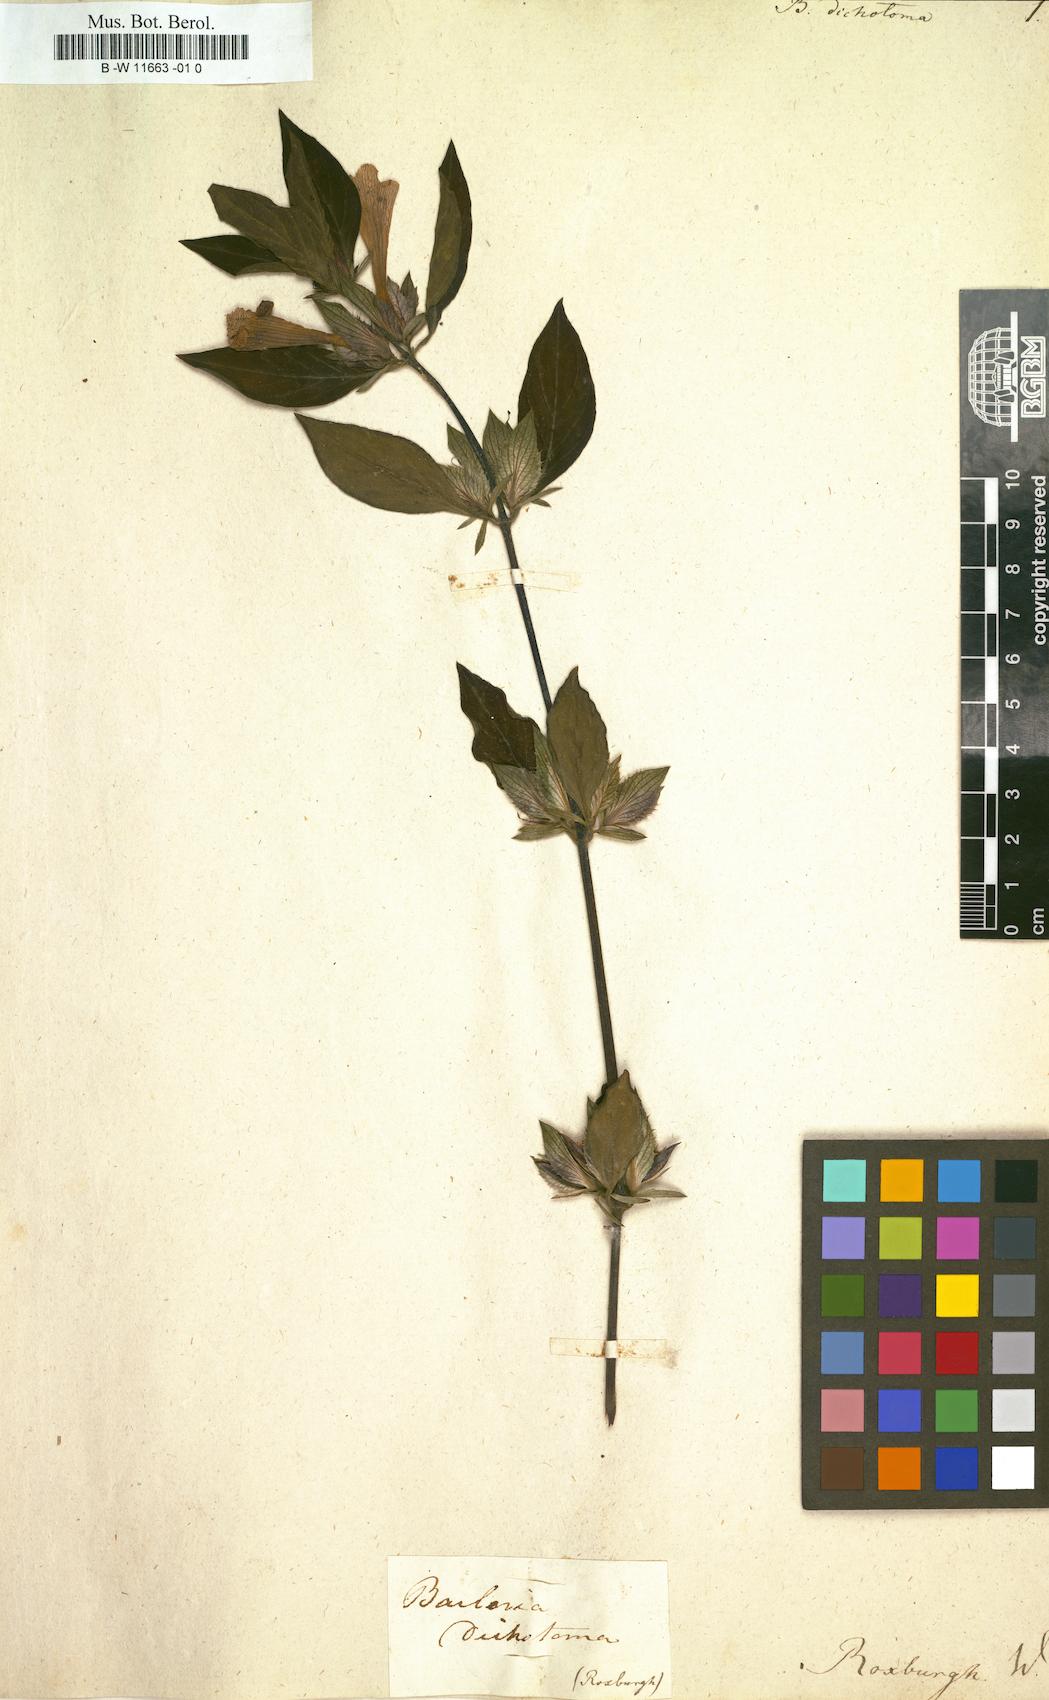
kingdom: Plantae
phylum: Tracheophyta
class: Magnoliopsida
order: Lamiales
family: Acanthaceae
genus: Barleria
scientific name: Barleria cristata
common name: Crested philippine violet
